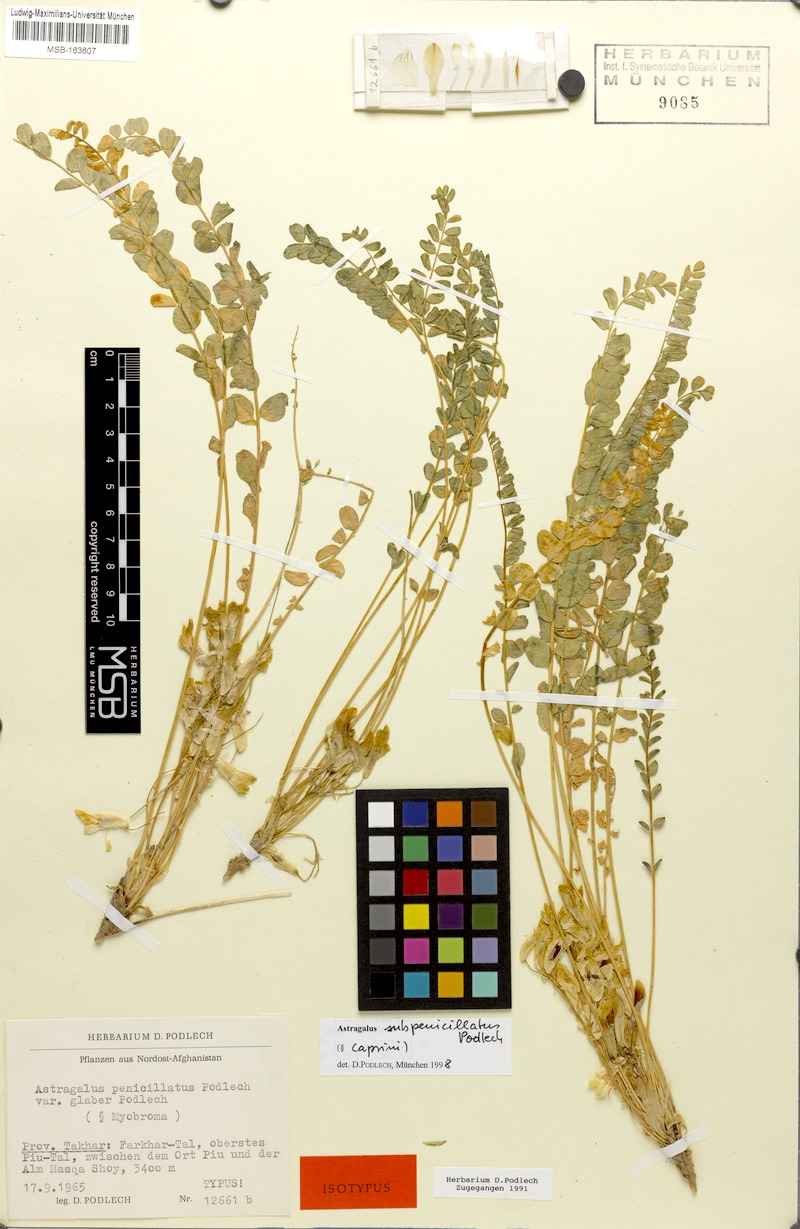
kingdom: Plantae
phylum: Tracheophyta
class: Magnoliopsida
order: Fabales
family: Fabaceae
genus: Astragalus
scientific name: Astragalus subpenicillatus
